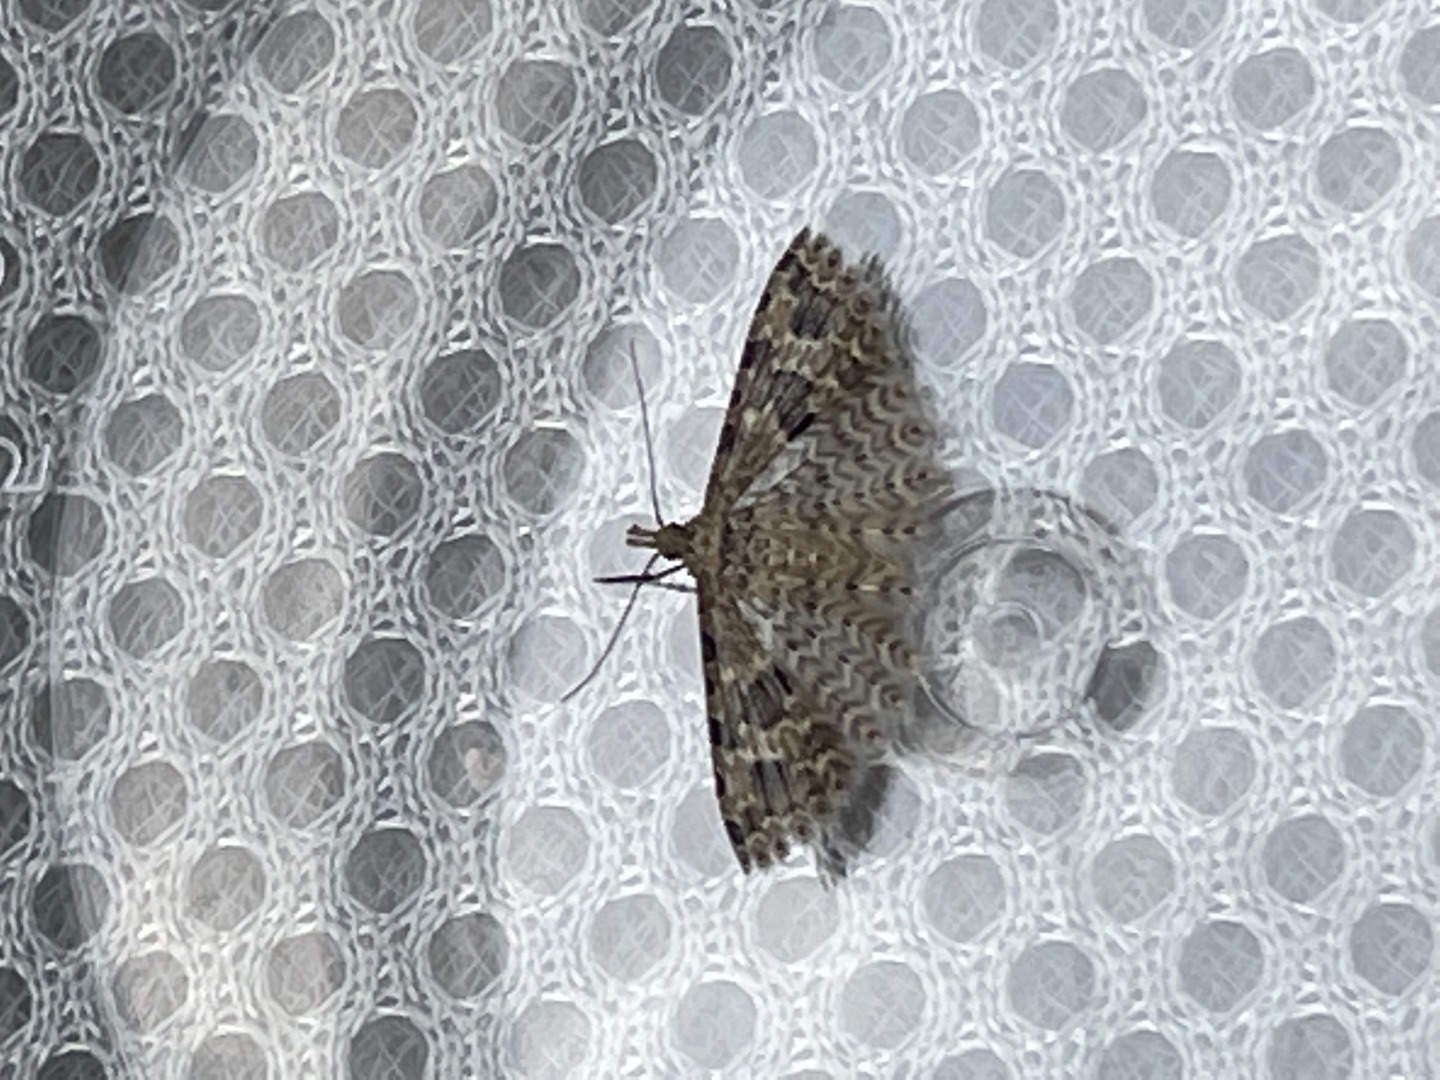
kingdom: Animalia
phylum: Arthropoda
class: Insecta
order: Lepidoptera
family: Alucitidae
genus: Alucita
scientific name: Alucita hexadactyla
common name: Kaprifoliefjermøl
